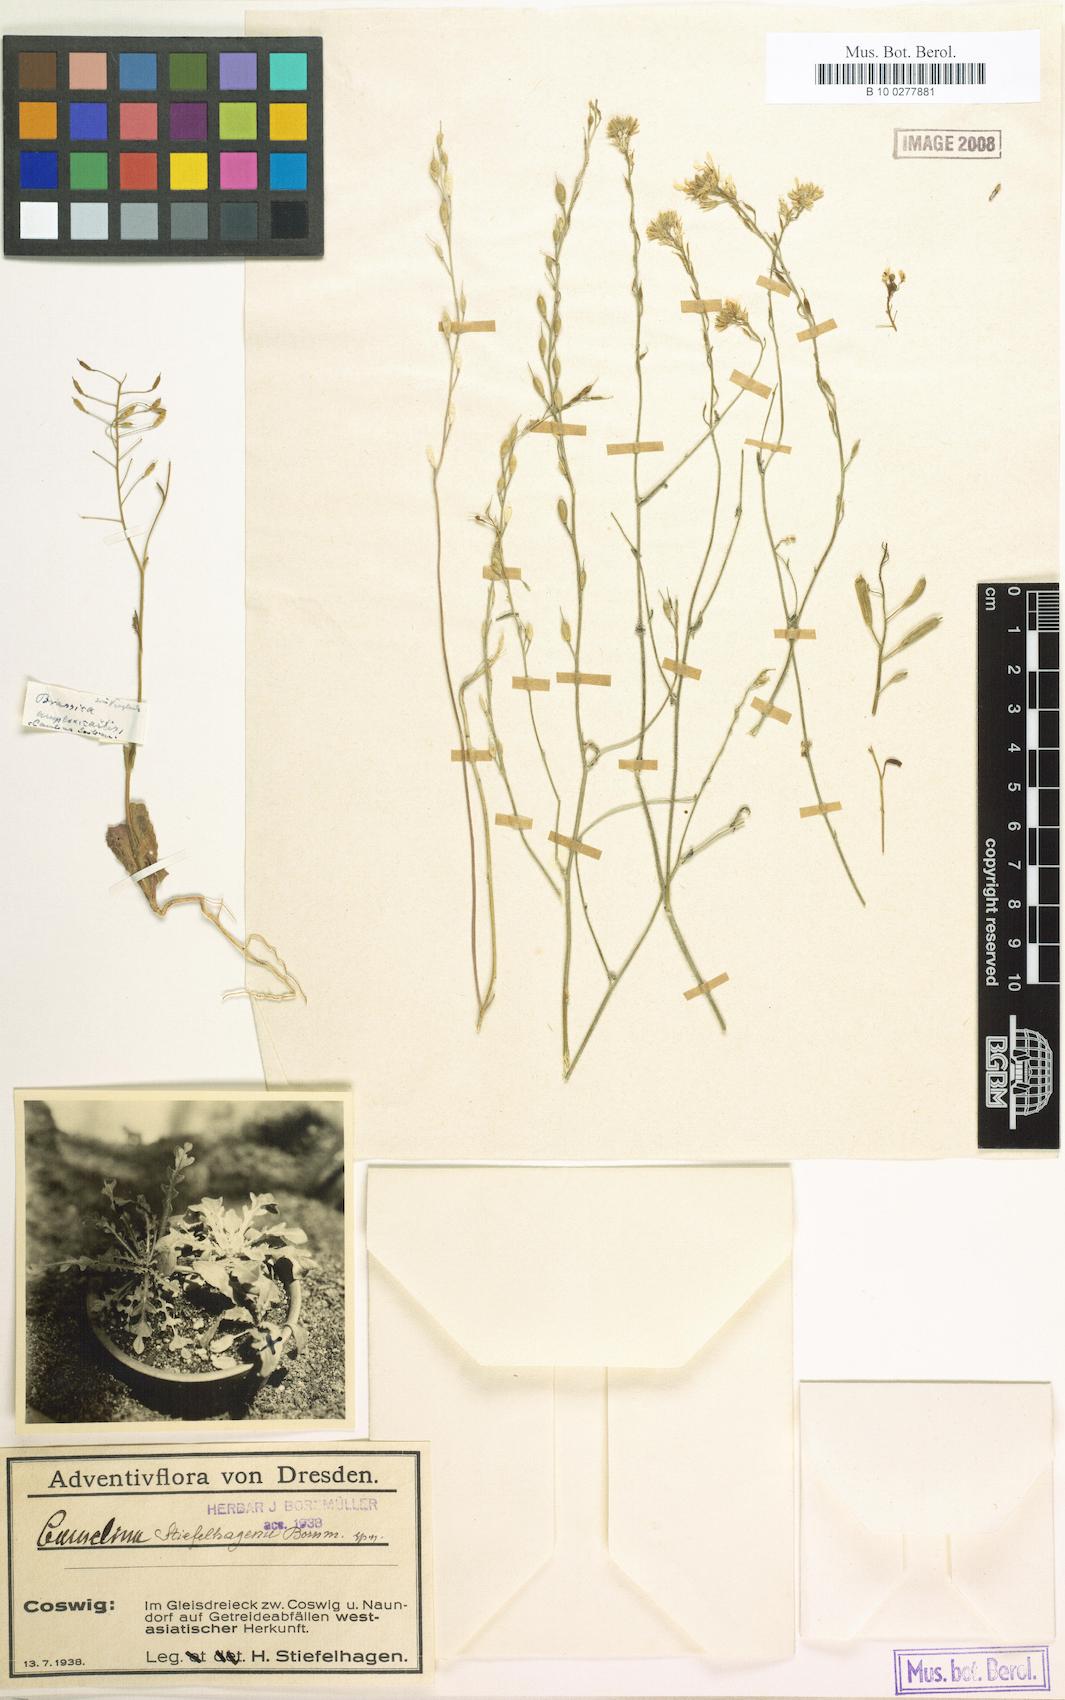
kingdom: Plantae
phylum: Tracheophyta
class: Magnoliopsida
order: Brassicales
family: Brassicaceae
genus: Camelina
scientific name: Camelina stiefelhagenii
